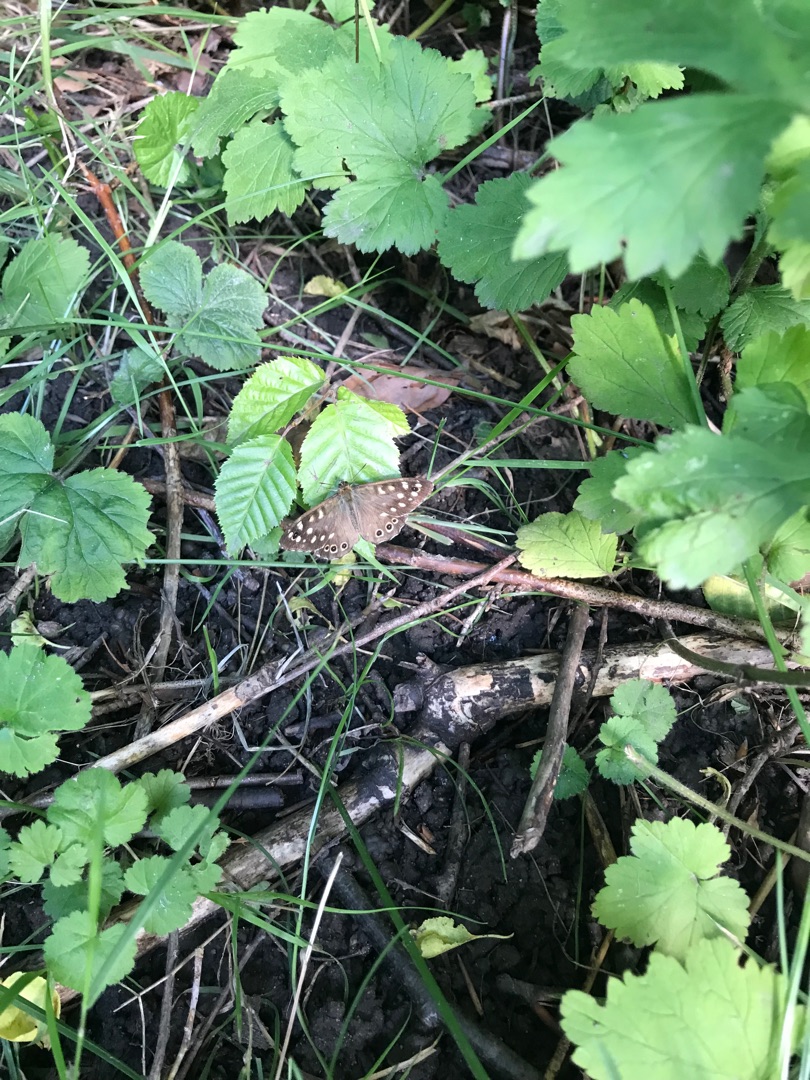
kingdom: Animalia
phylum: Arthropoda
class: Insecta
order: Lepidoptera
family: Nymphalidae
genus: Pararge
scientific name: Pararge aegeria
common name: Skovrandøje
